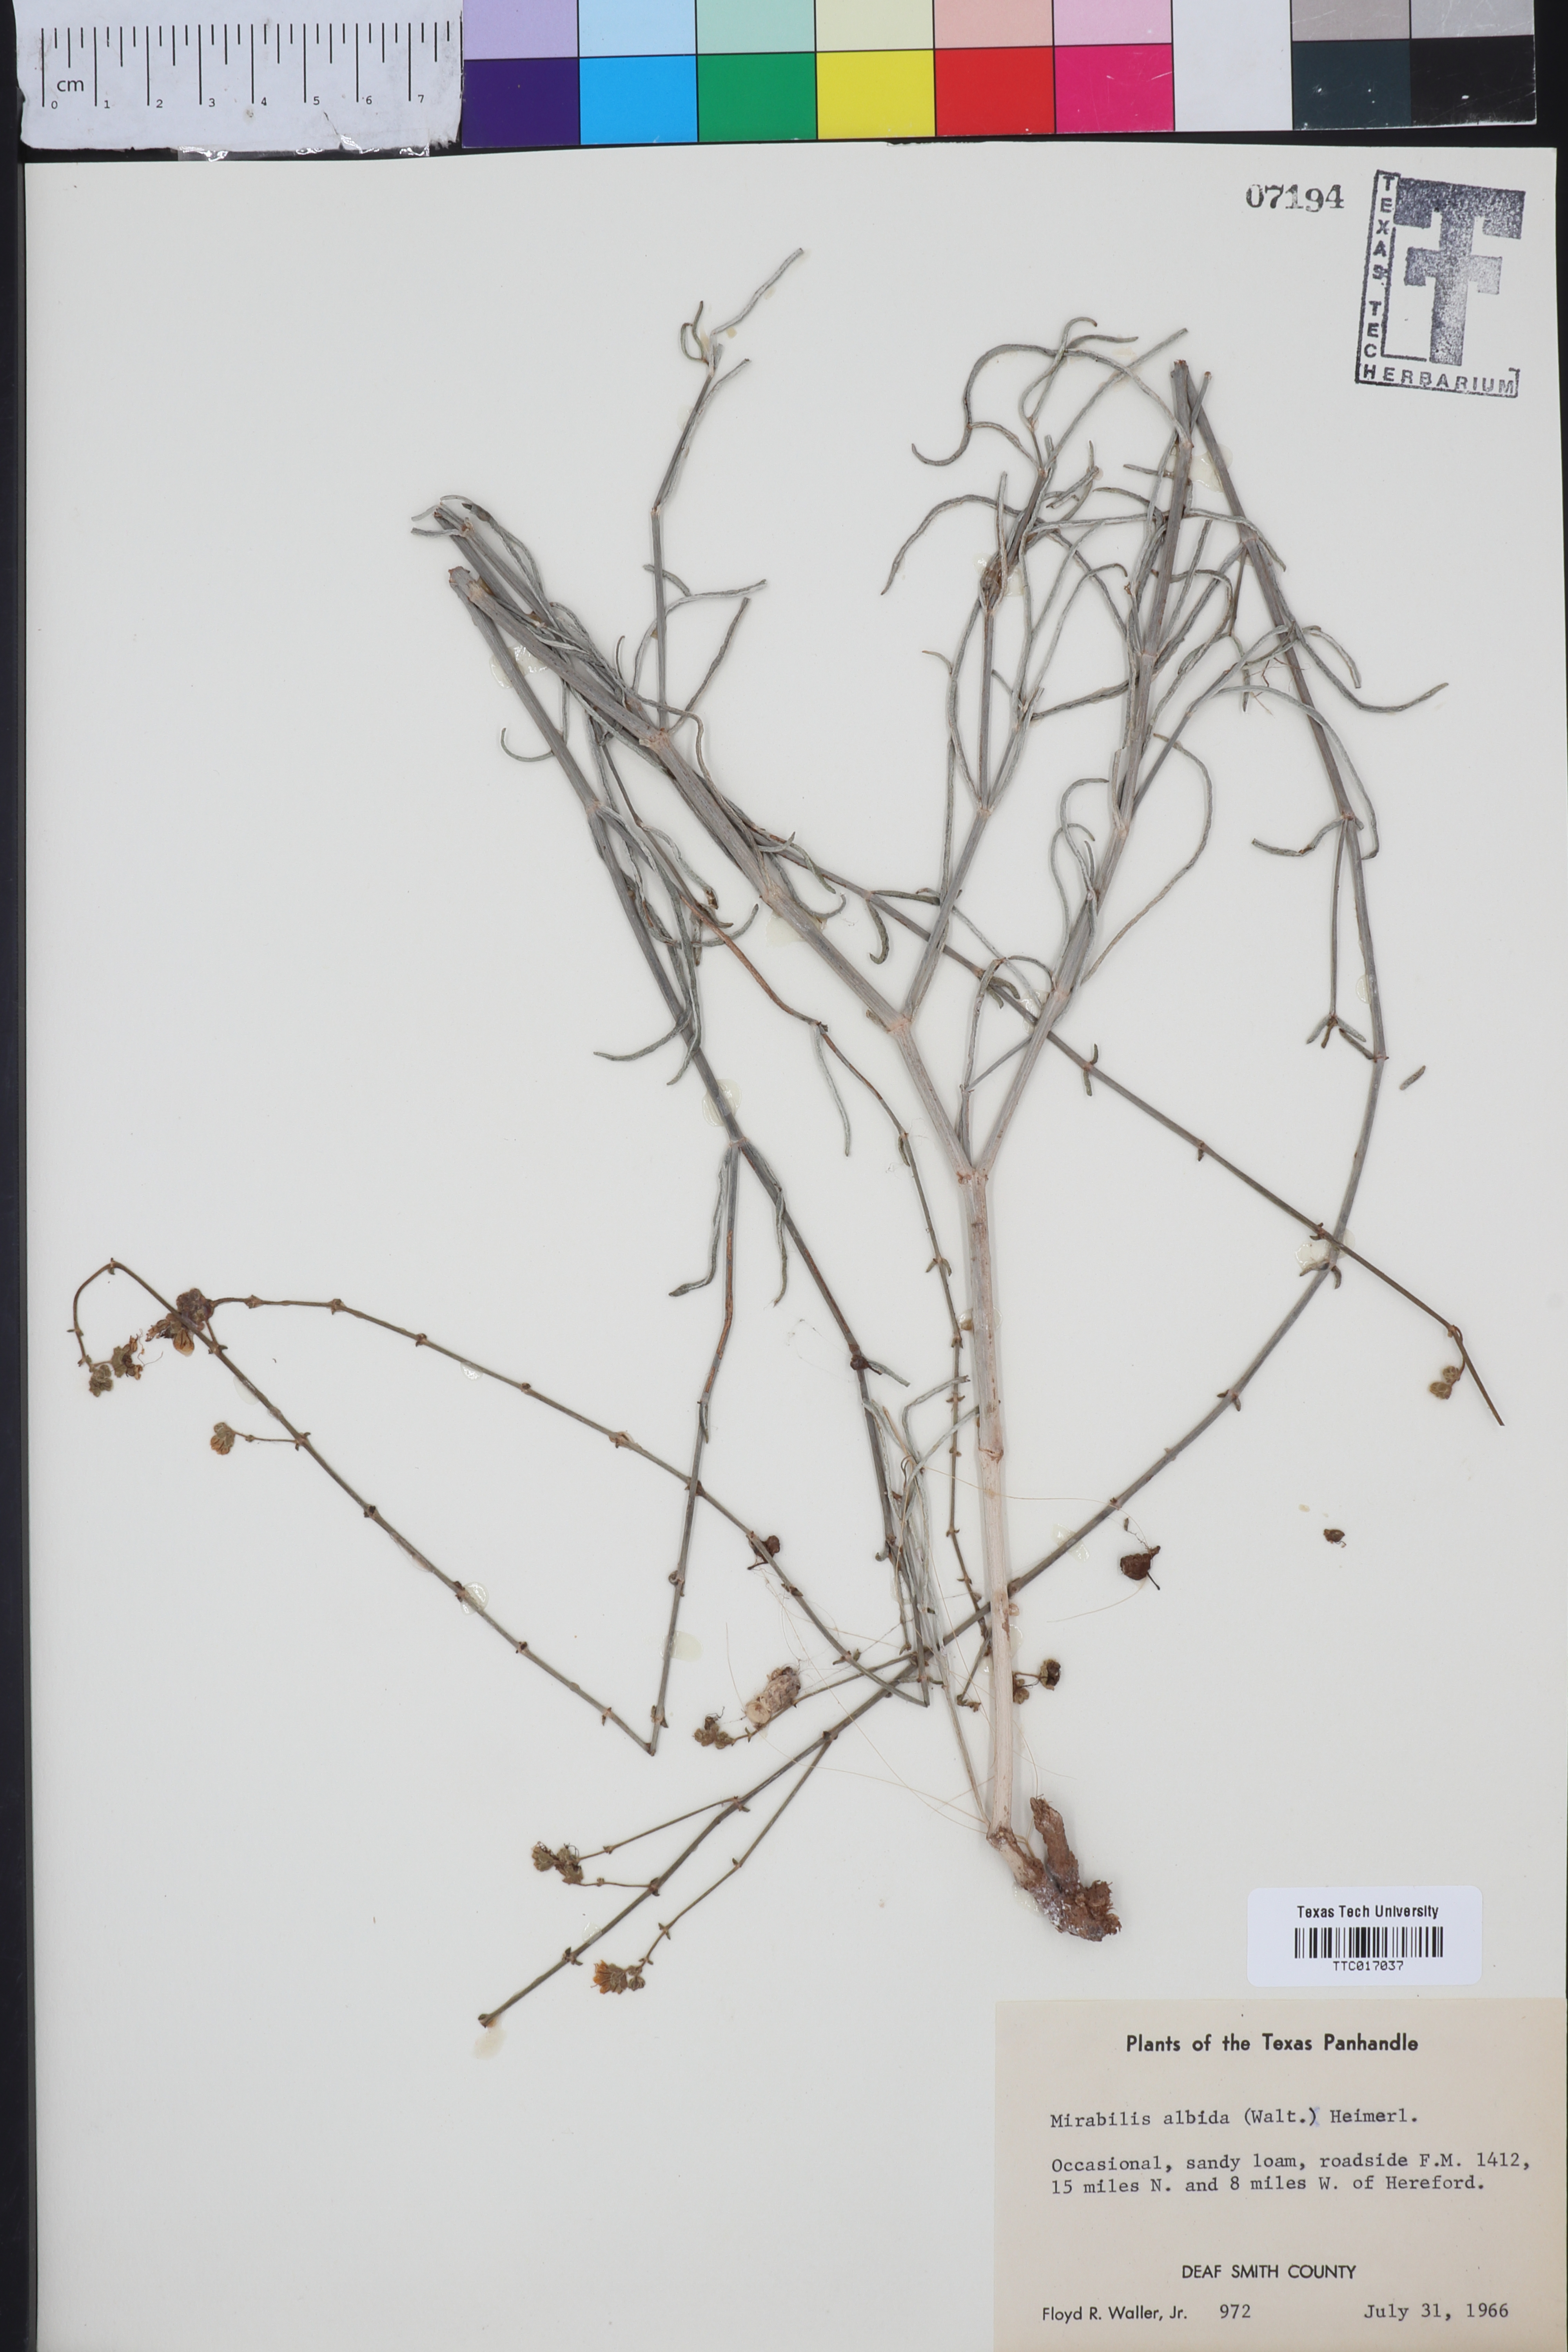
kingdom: Plantae
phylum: Tracheophyta
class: Magnoliopsida
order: Caryophyllales
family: Nyctaginaceae
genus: Mirabilis
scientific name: Mirabilis albida
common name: Hairy four-o'clock
